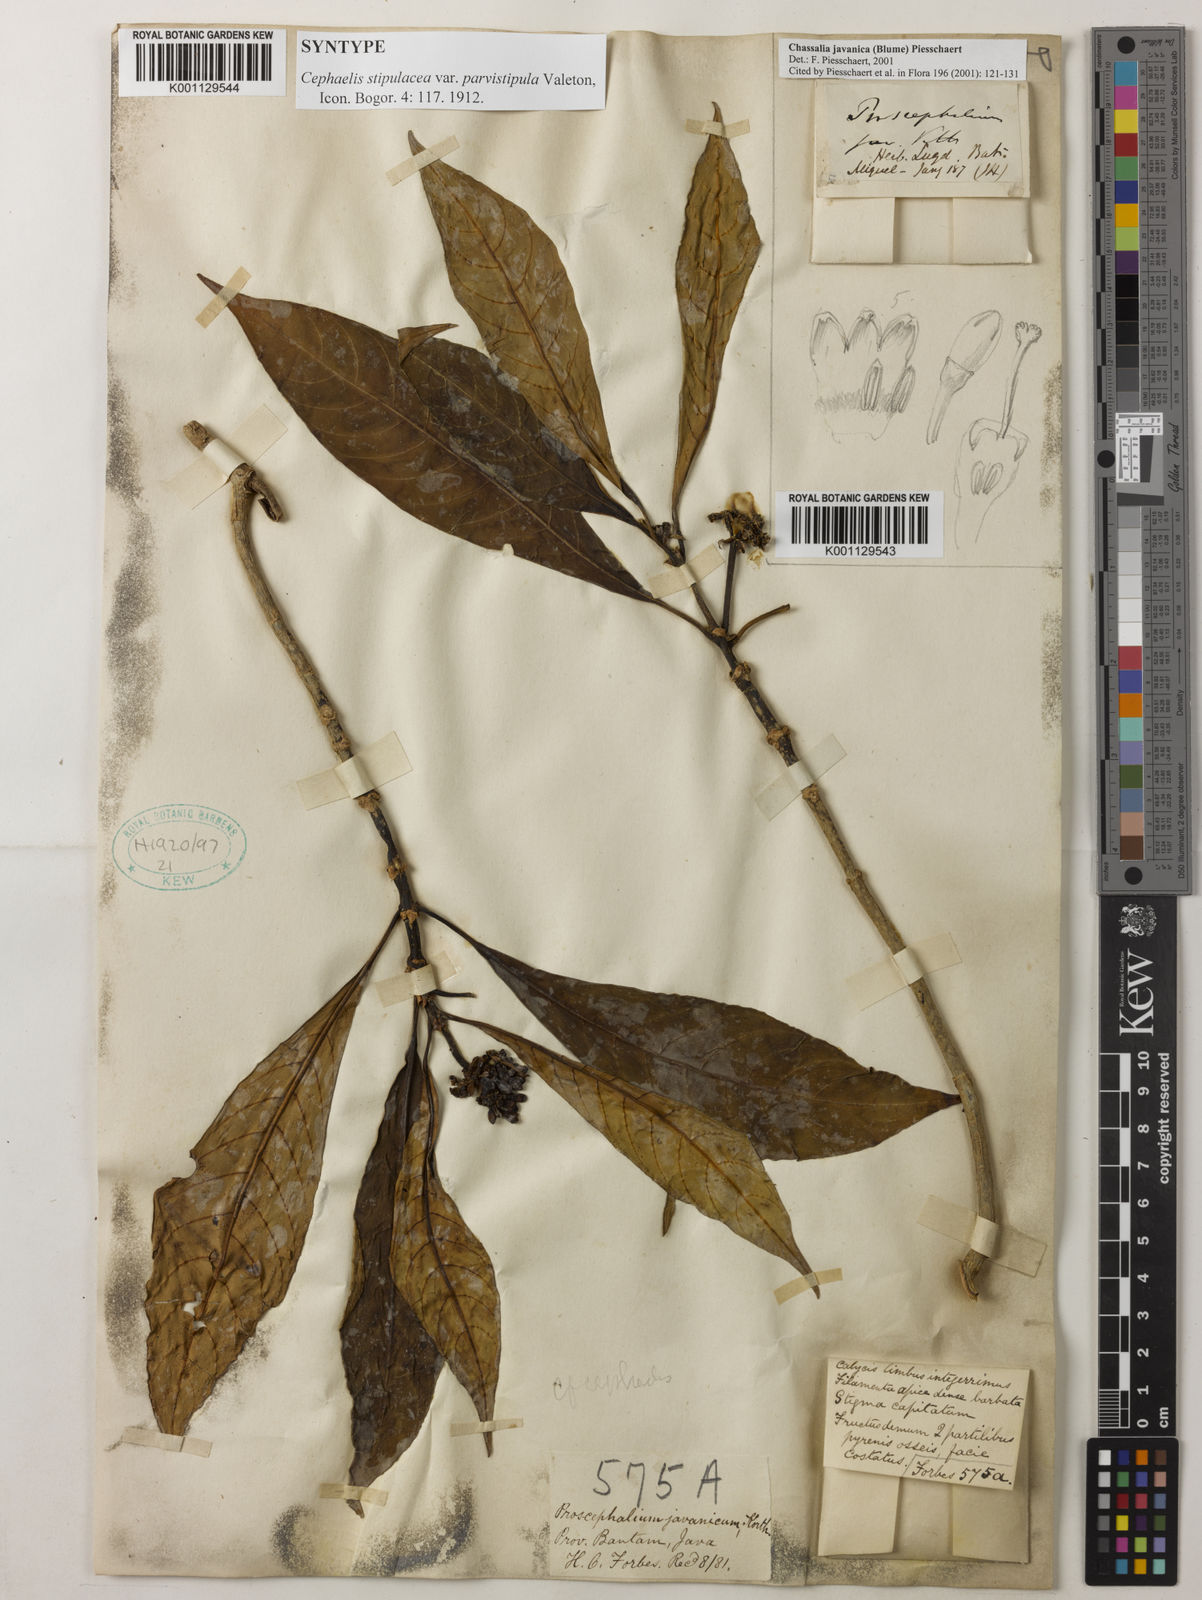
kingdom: Plantae
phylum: Tracheophyta
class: Magnoliopsida
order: Gentianales
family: Rubiaceae
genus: Chassalia
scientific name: Chassalia javanica
